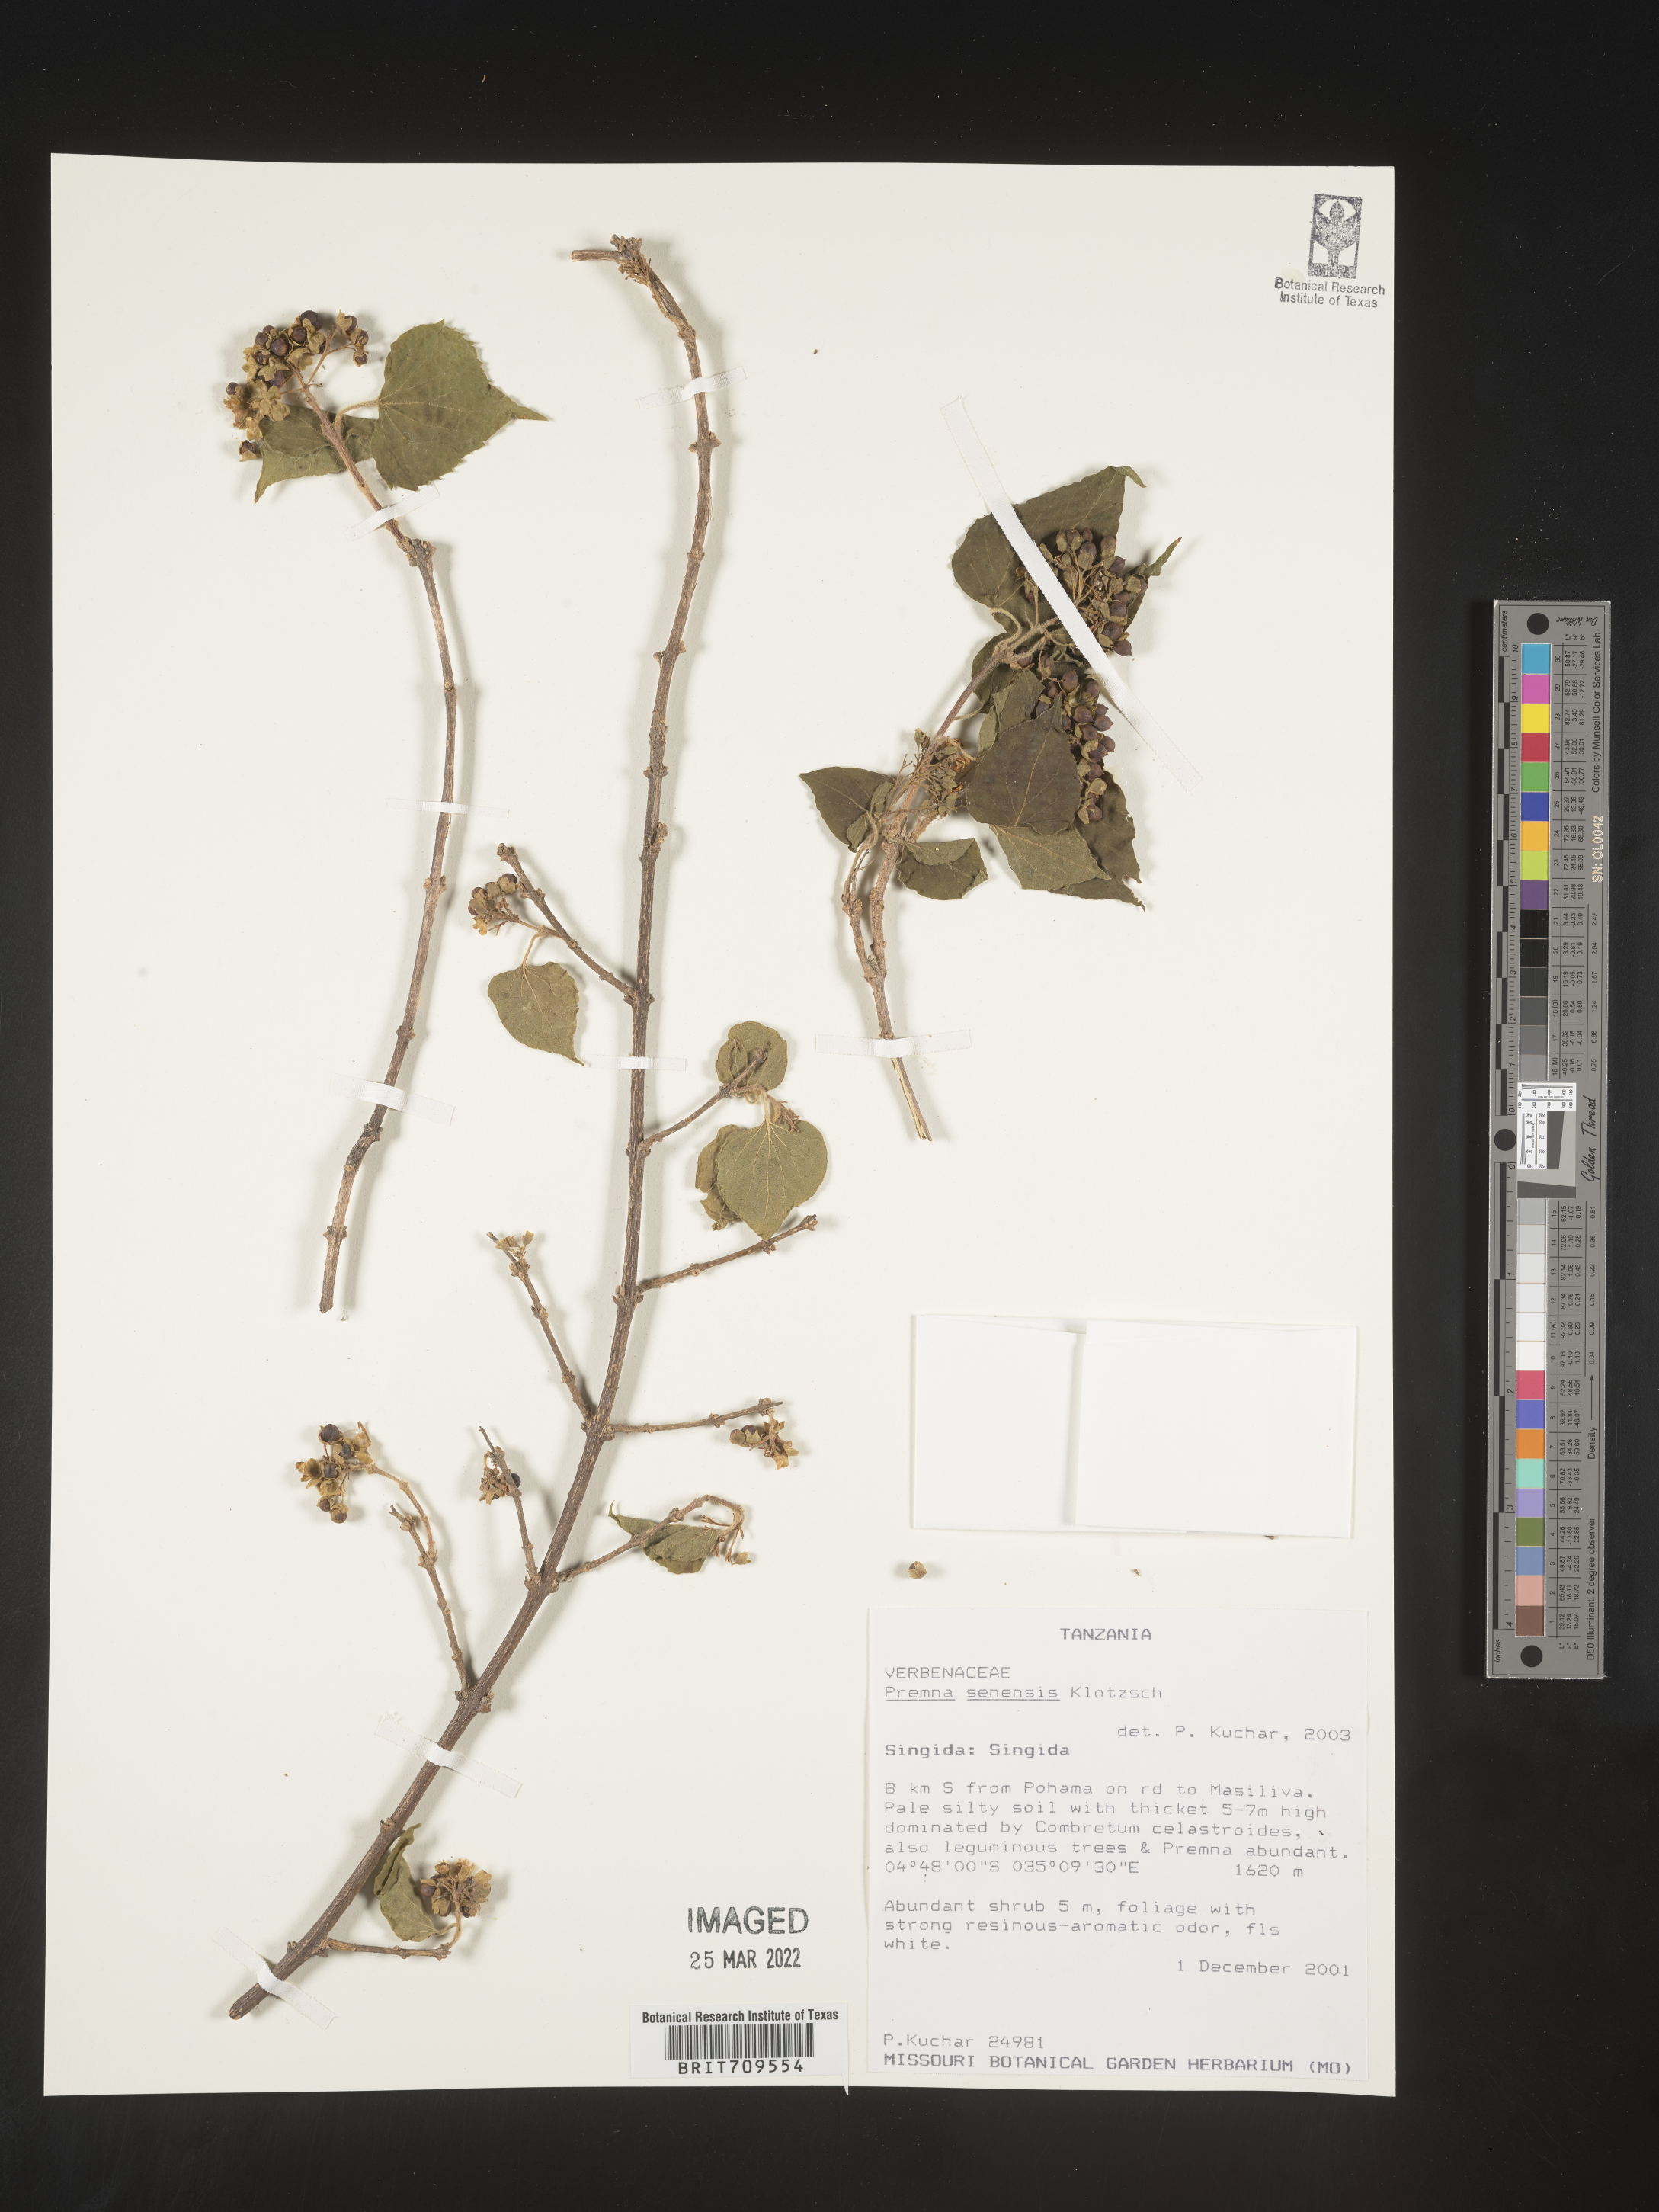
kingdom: Plantae
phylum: Tracheophyta
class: Magnoliopsida
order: Lamiales
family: Lamiaceae
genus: Premna
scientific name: Premna
